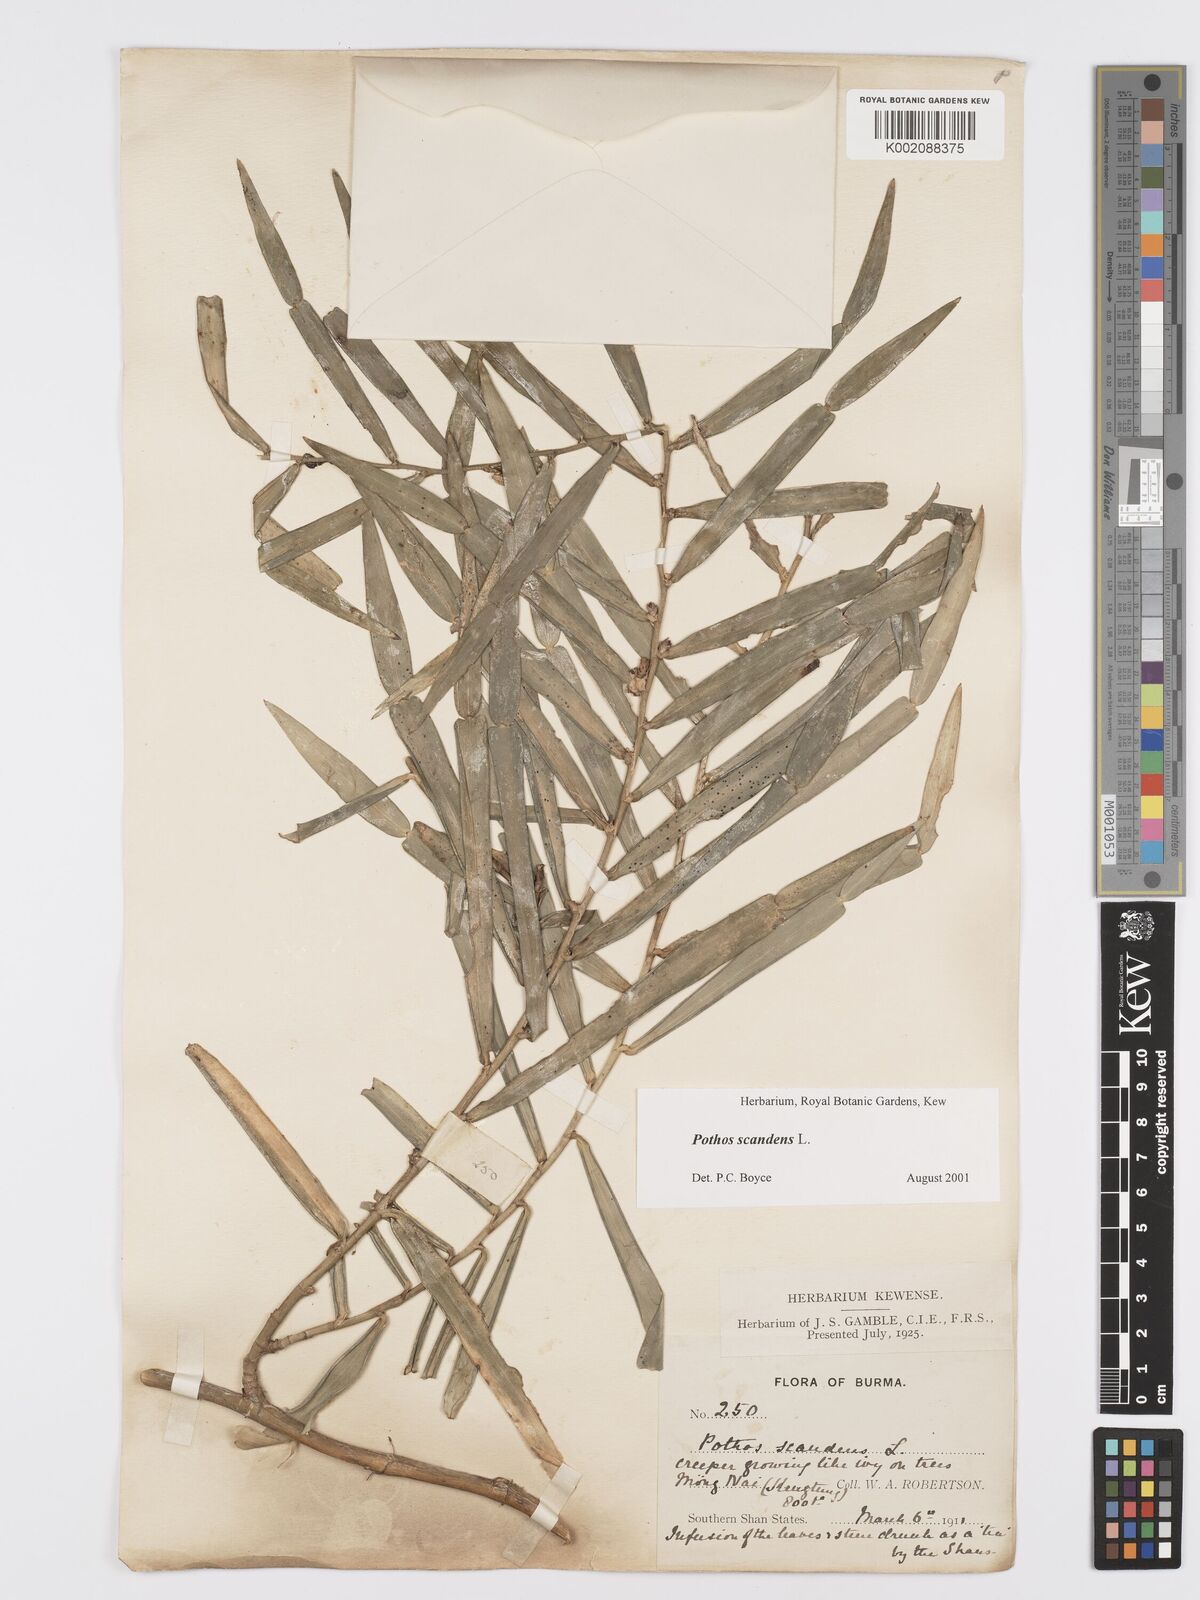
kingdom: Plantae
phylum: Tracheophyta
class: Liliopsida
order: Alismatales
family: Araceae
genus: Pothos
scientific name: Pothos scandens
